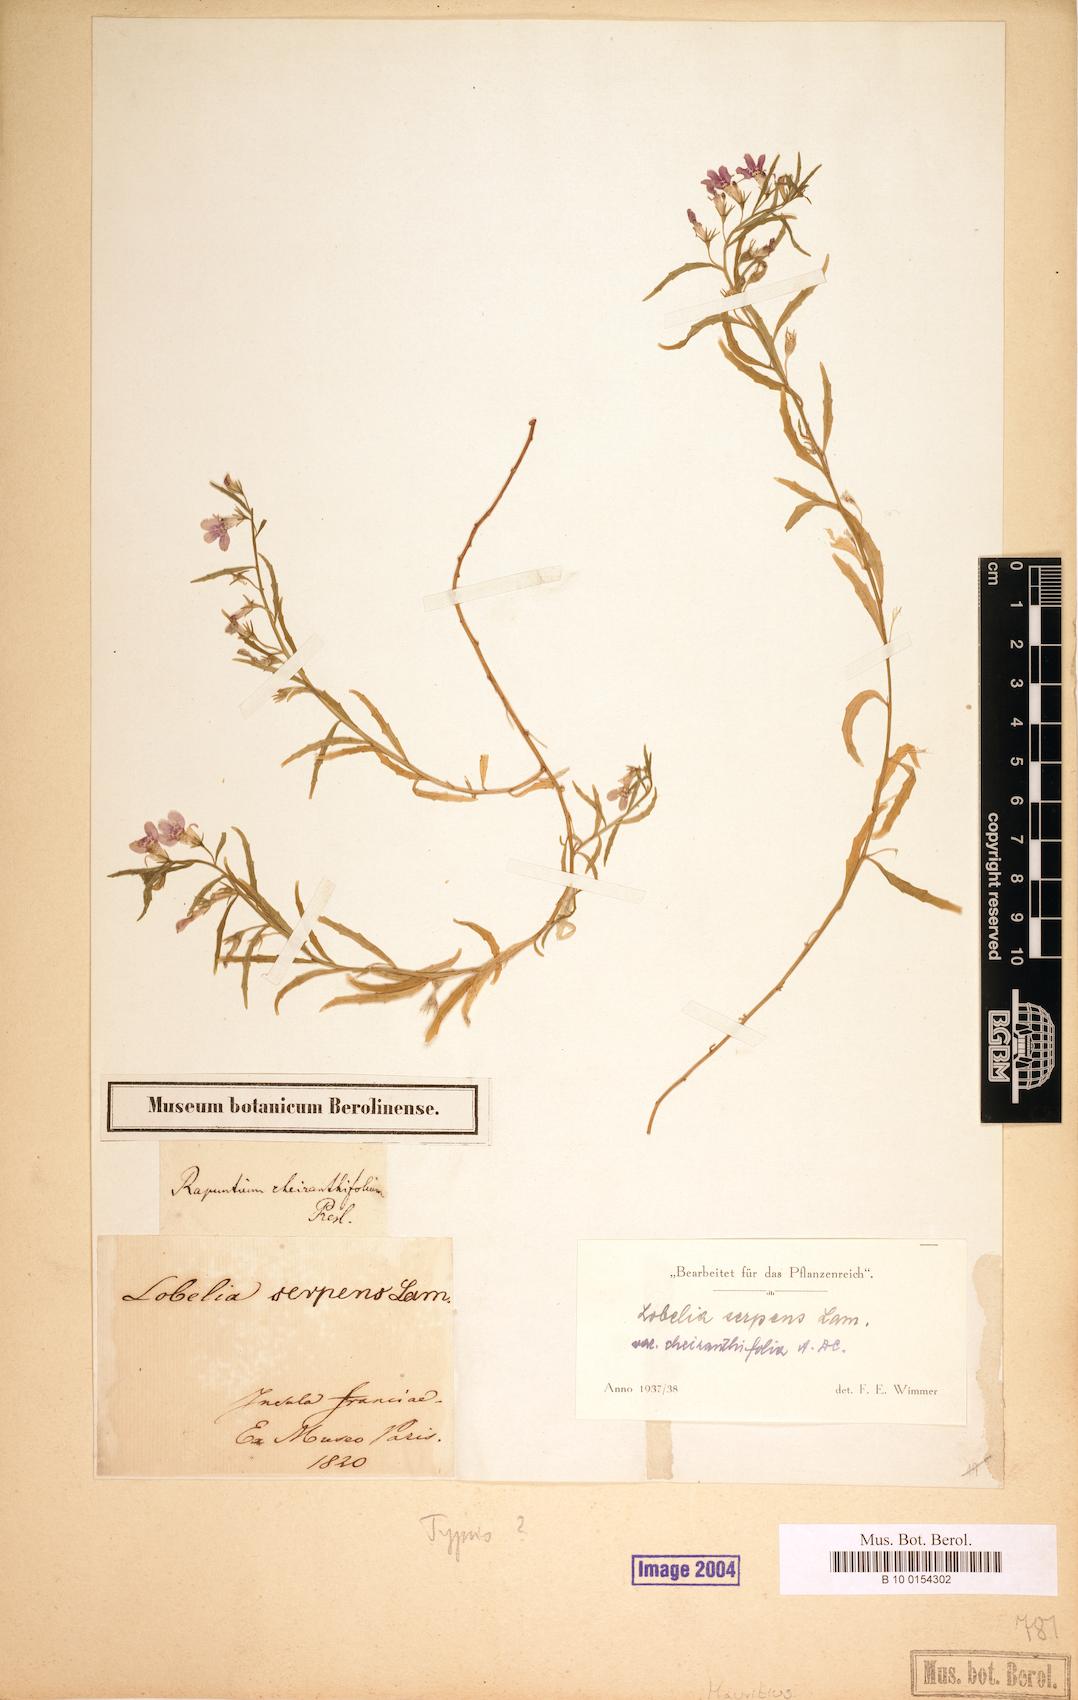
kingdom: Plantae
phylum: Tracheophyta
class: Magnoliopsida
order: Asterales
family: Campanulaceae
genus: Lobelia
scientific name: Lobelia serpens
